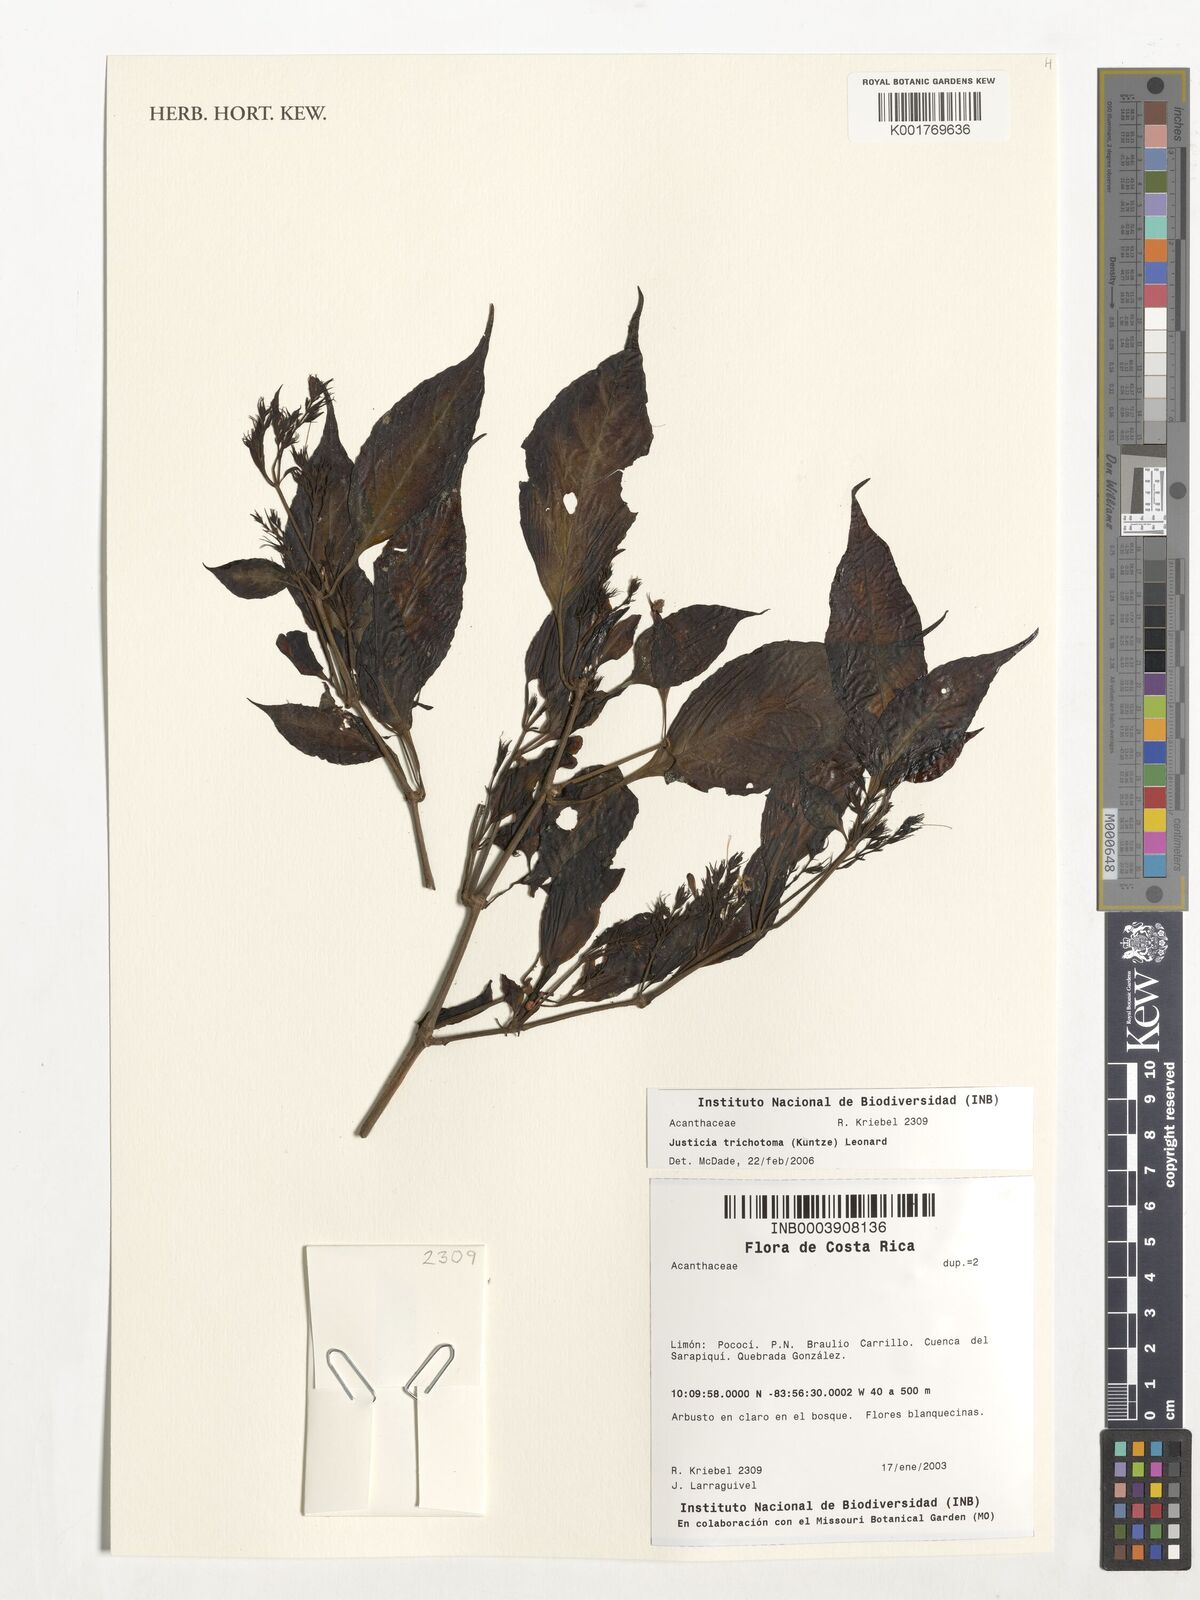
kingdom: Plantae
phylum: Tracheophyta
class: Magnoliopsida
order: Lamiales
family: Acanthaceae
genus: Justicia
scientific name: Justicia trichotoma
